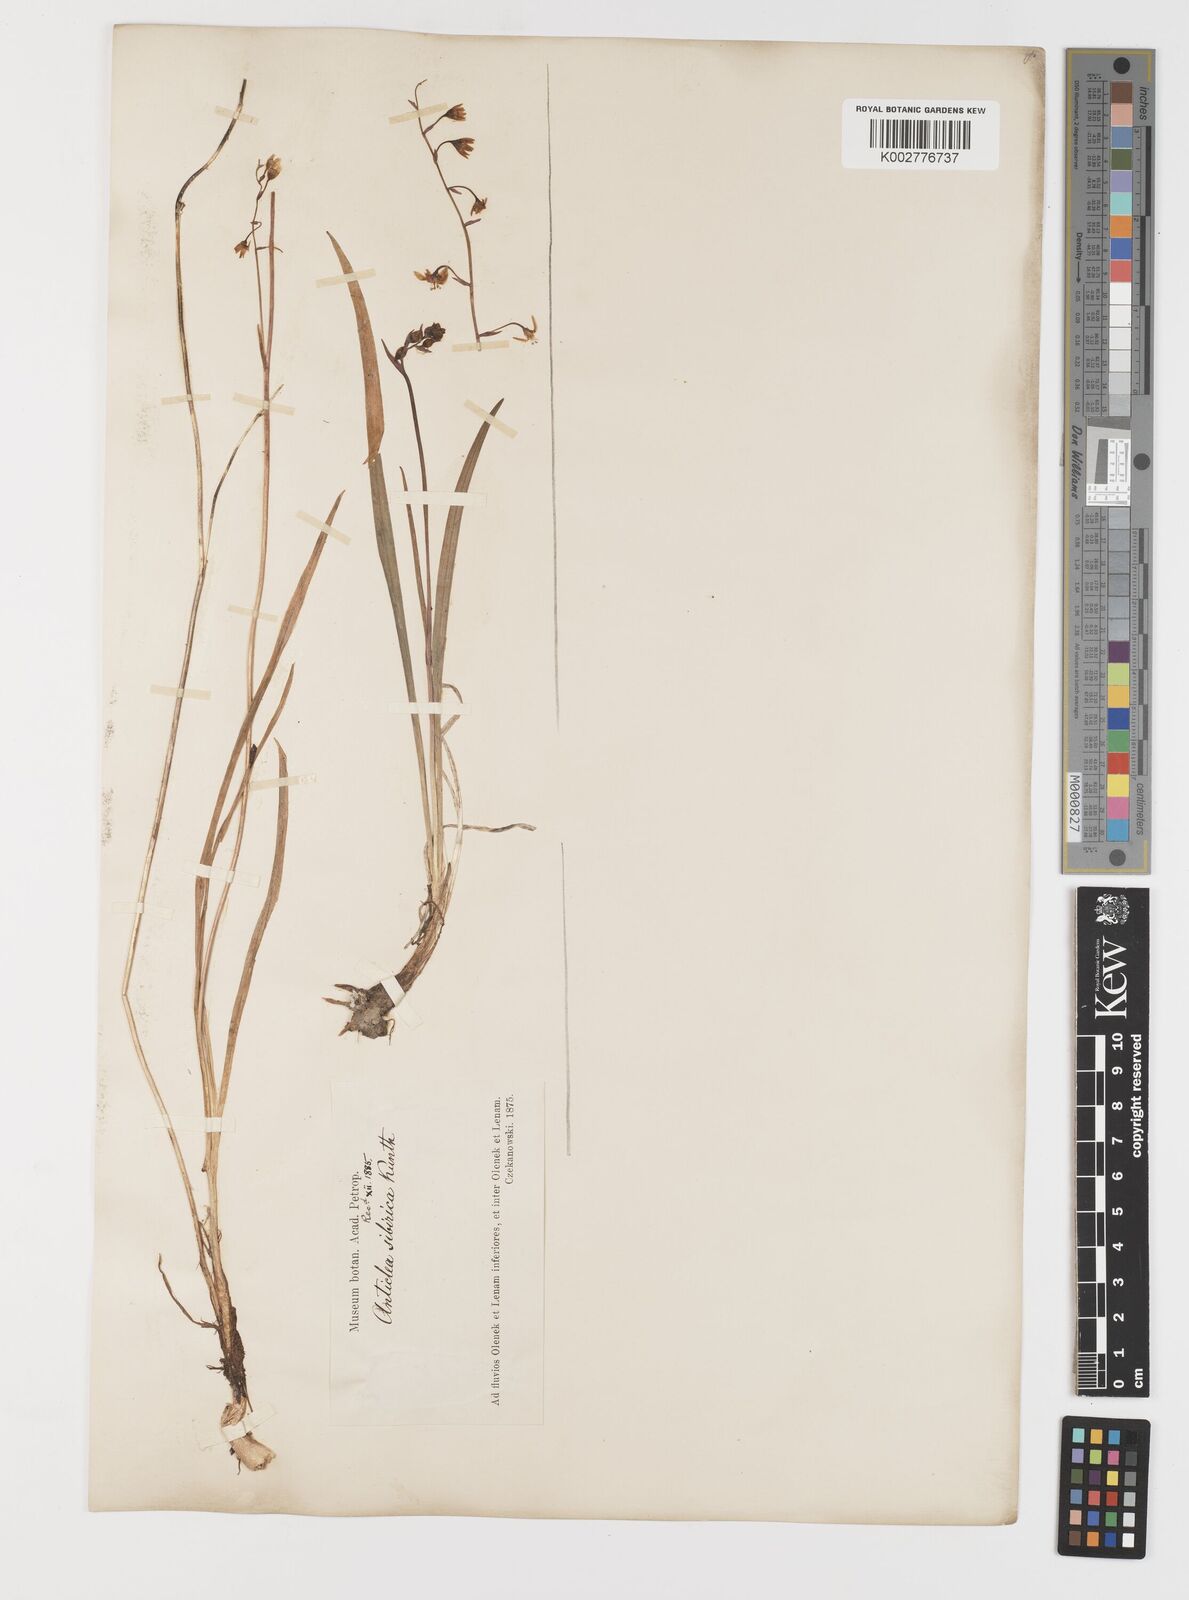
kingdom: Plantae
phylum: Tracheophyta
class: Liliopsida
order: Liliales
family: Melanthiaceae
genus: Anticlea
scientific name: Anticlea sibirica
